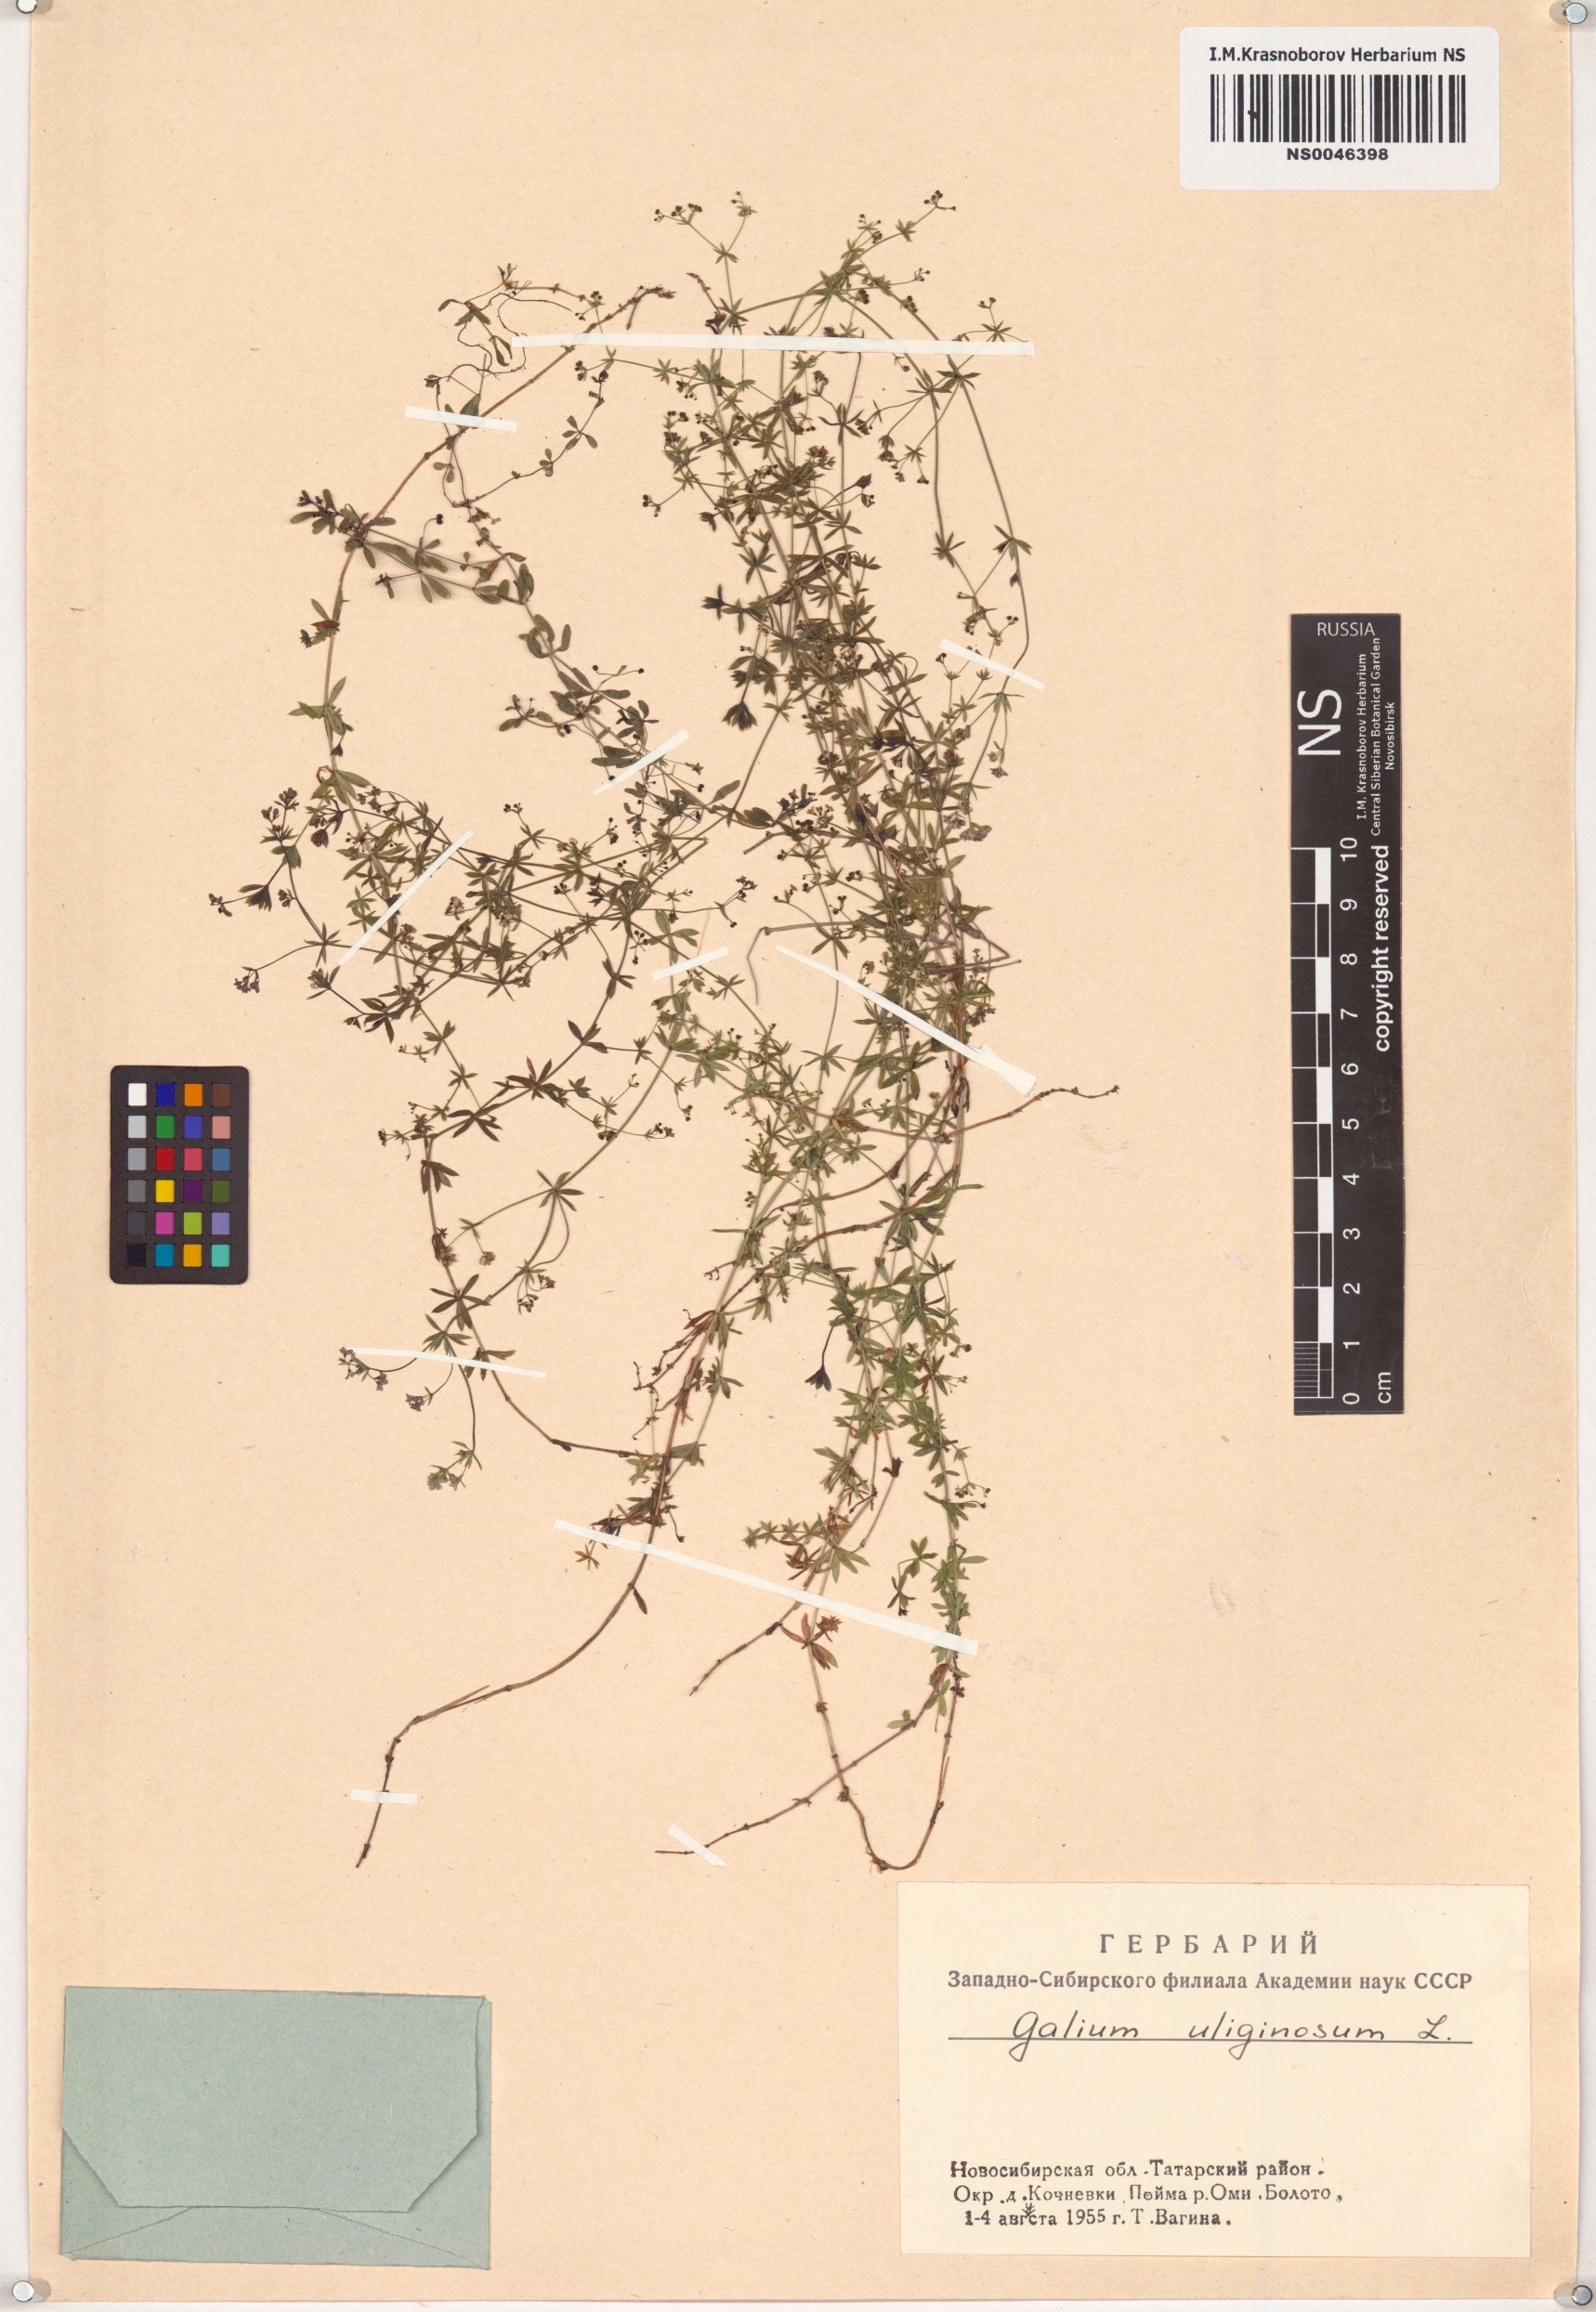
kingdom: Plantae
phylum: Tracheophyta
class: Magnoliopsida
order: Gentianales
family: Rubiaceae
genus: Galium
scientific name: Galium uliginosum
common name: Fen bedstraw
